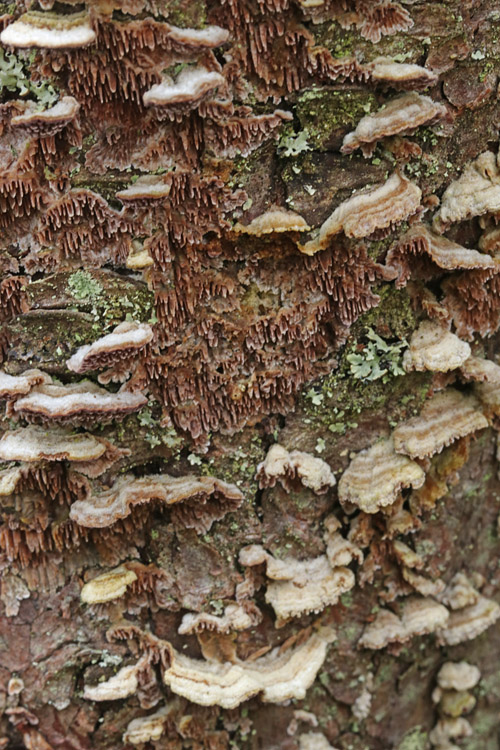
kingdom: Fungi
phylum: Basidiomycota
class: Agaricomycetes
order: Hymenochaetales
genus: Trichaptum
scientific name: Trichaptum fuscoviolaceum
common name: tandet violporesvamp
